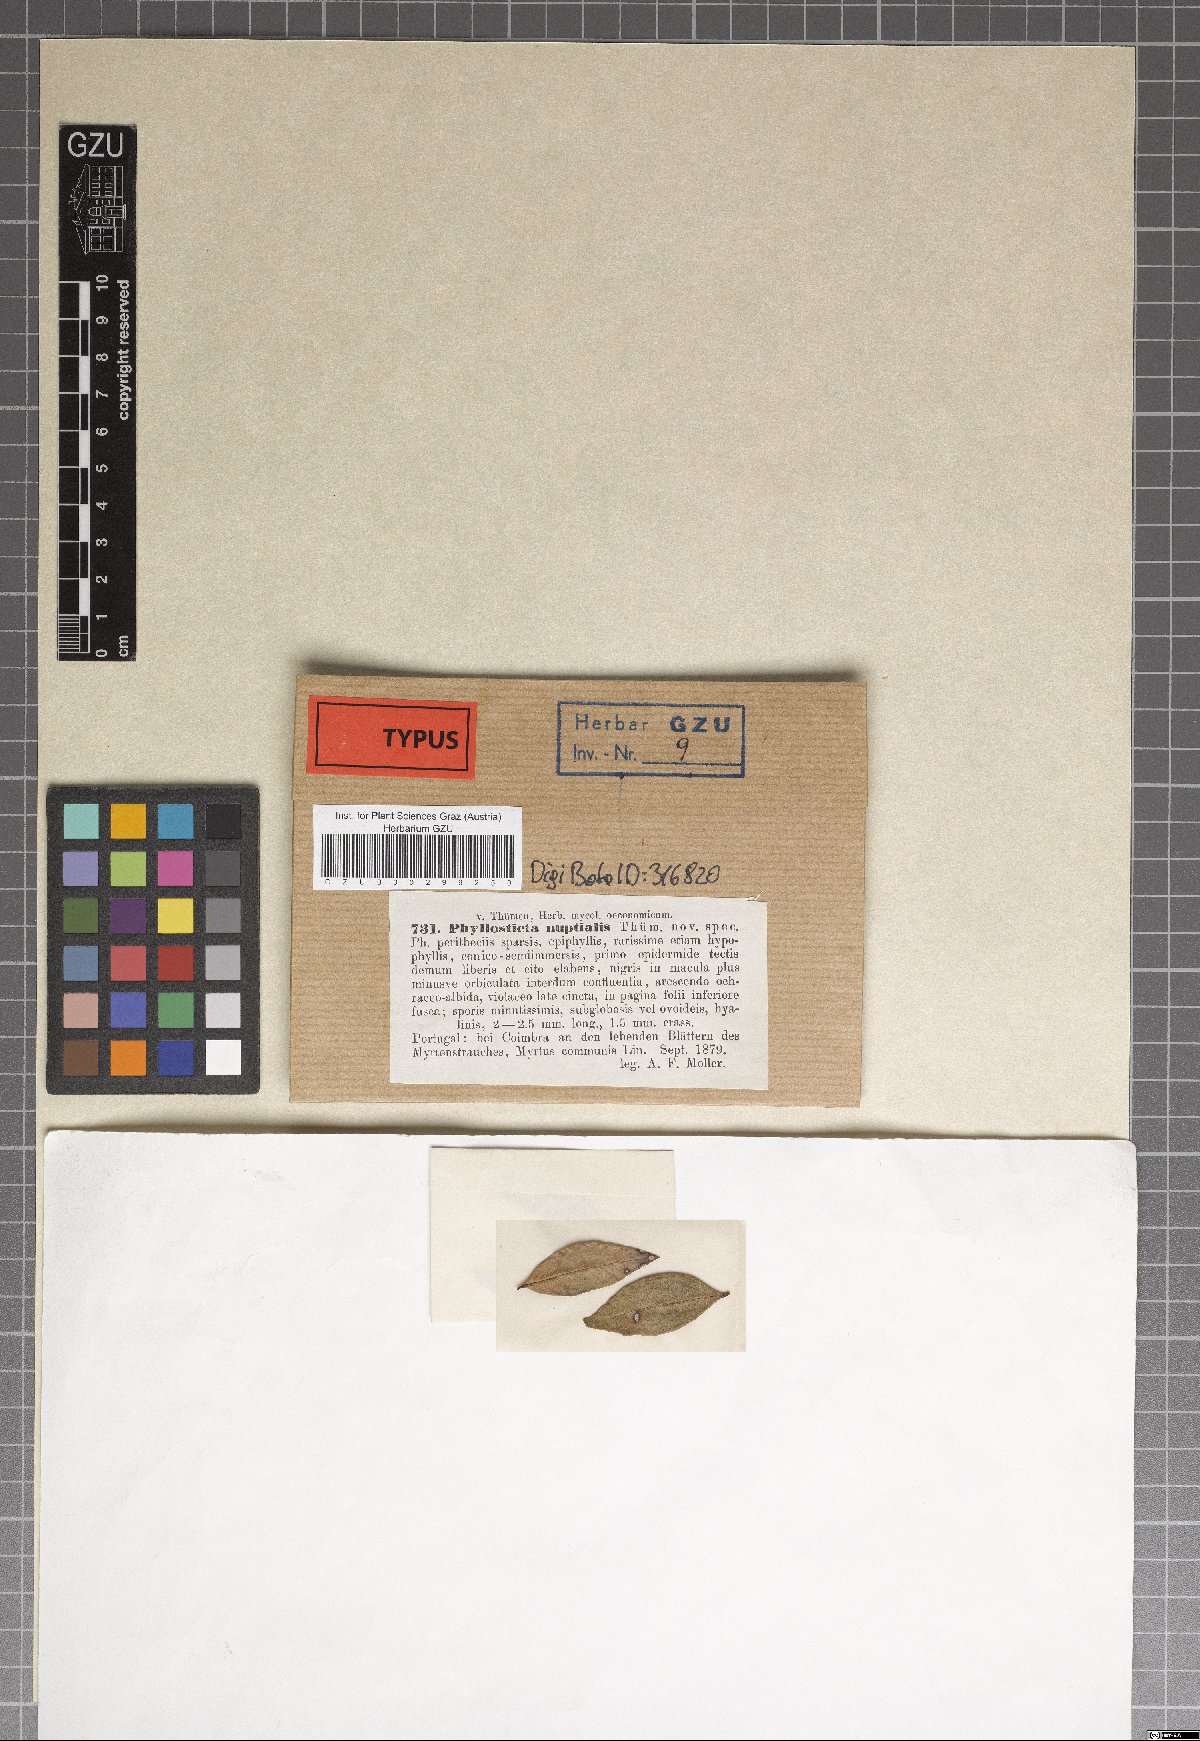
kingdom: Fungi
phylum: Ascomycota
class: Dothideomycetes
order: Botryosphaeriales
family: Phyllostictaceae
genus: Phyllosticta
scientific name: Phyllosticta nuptialis
